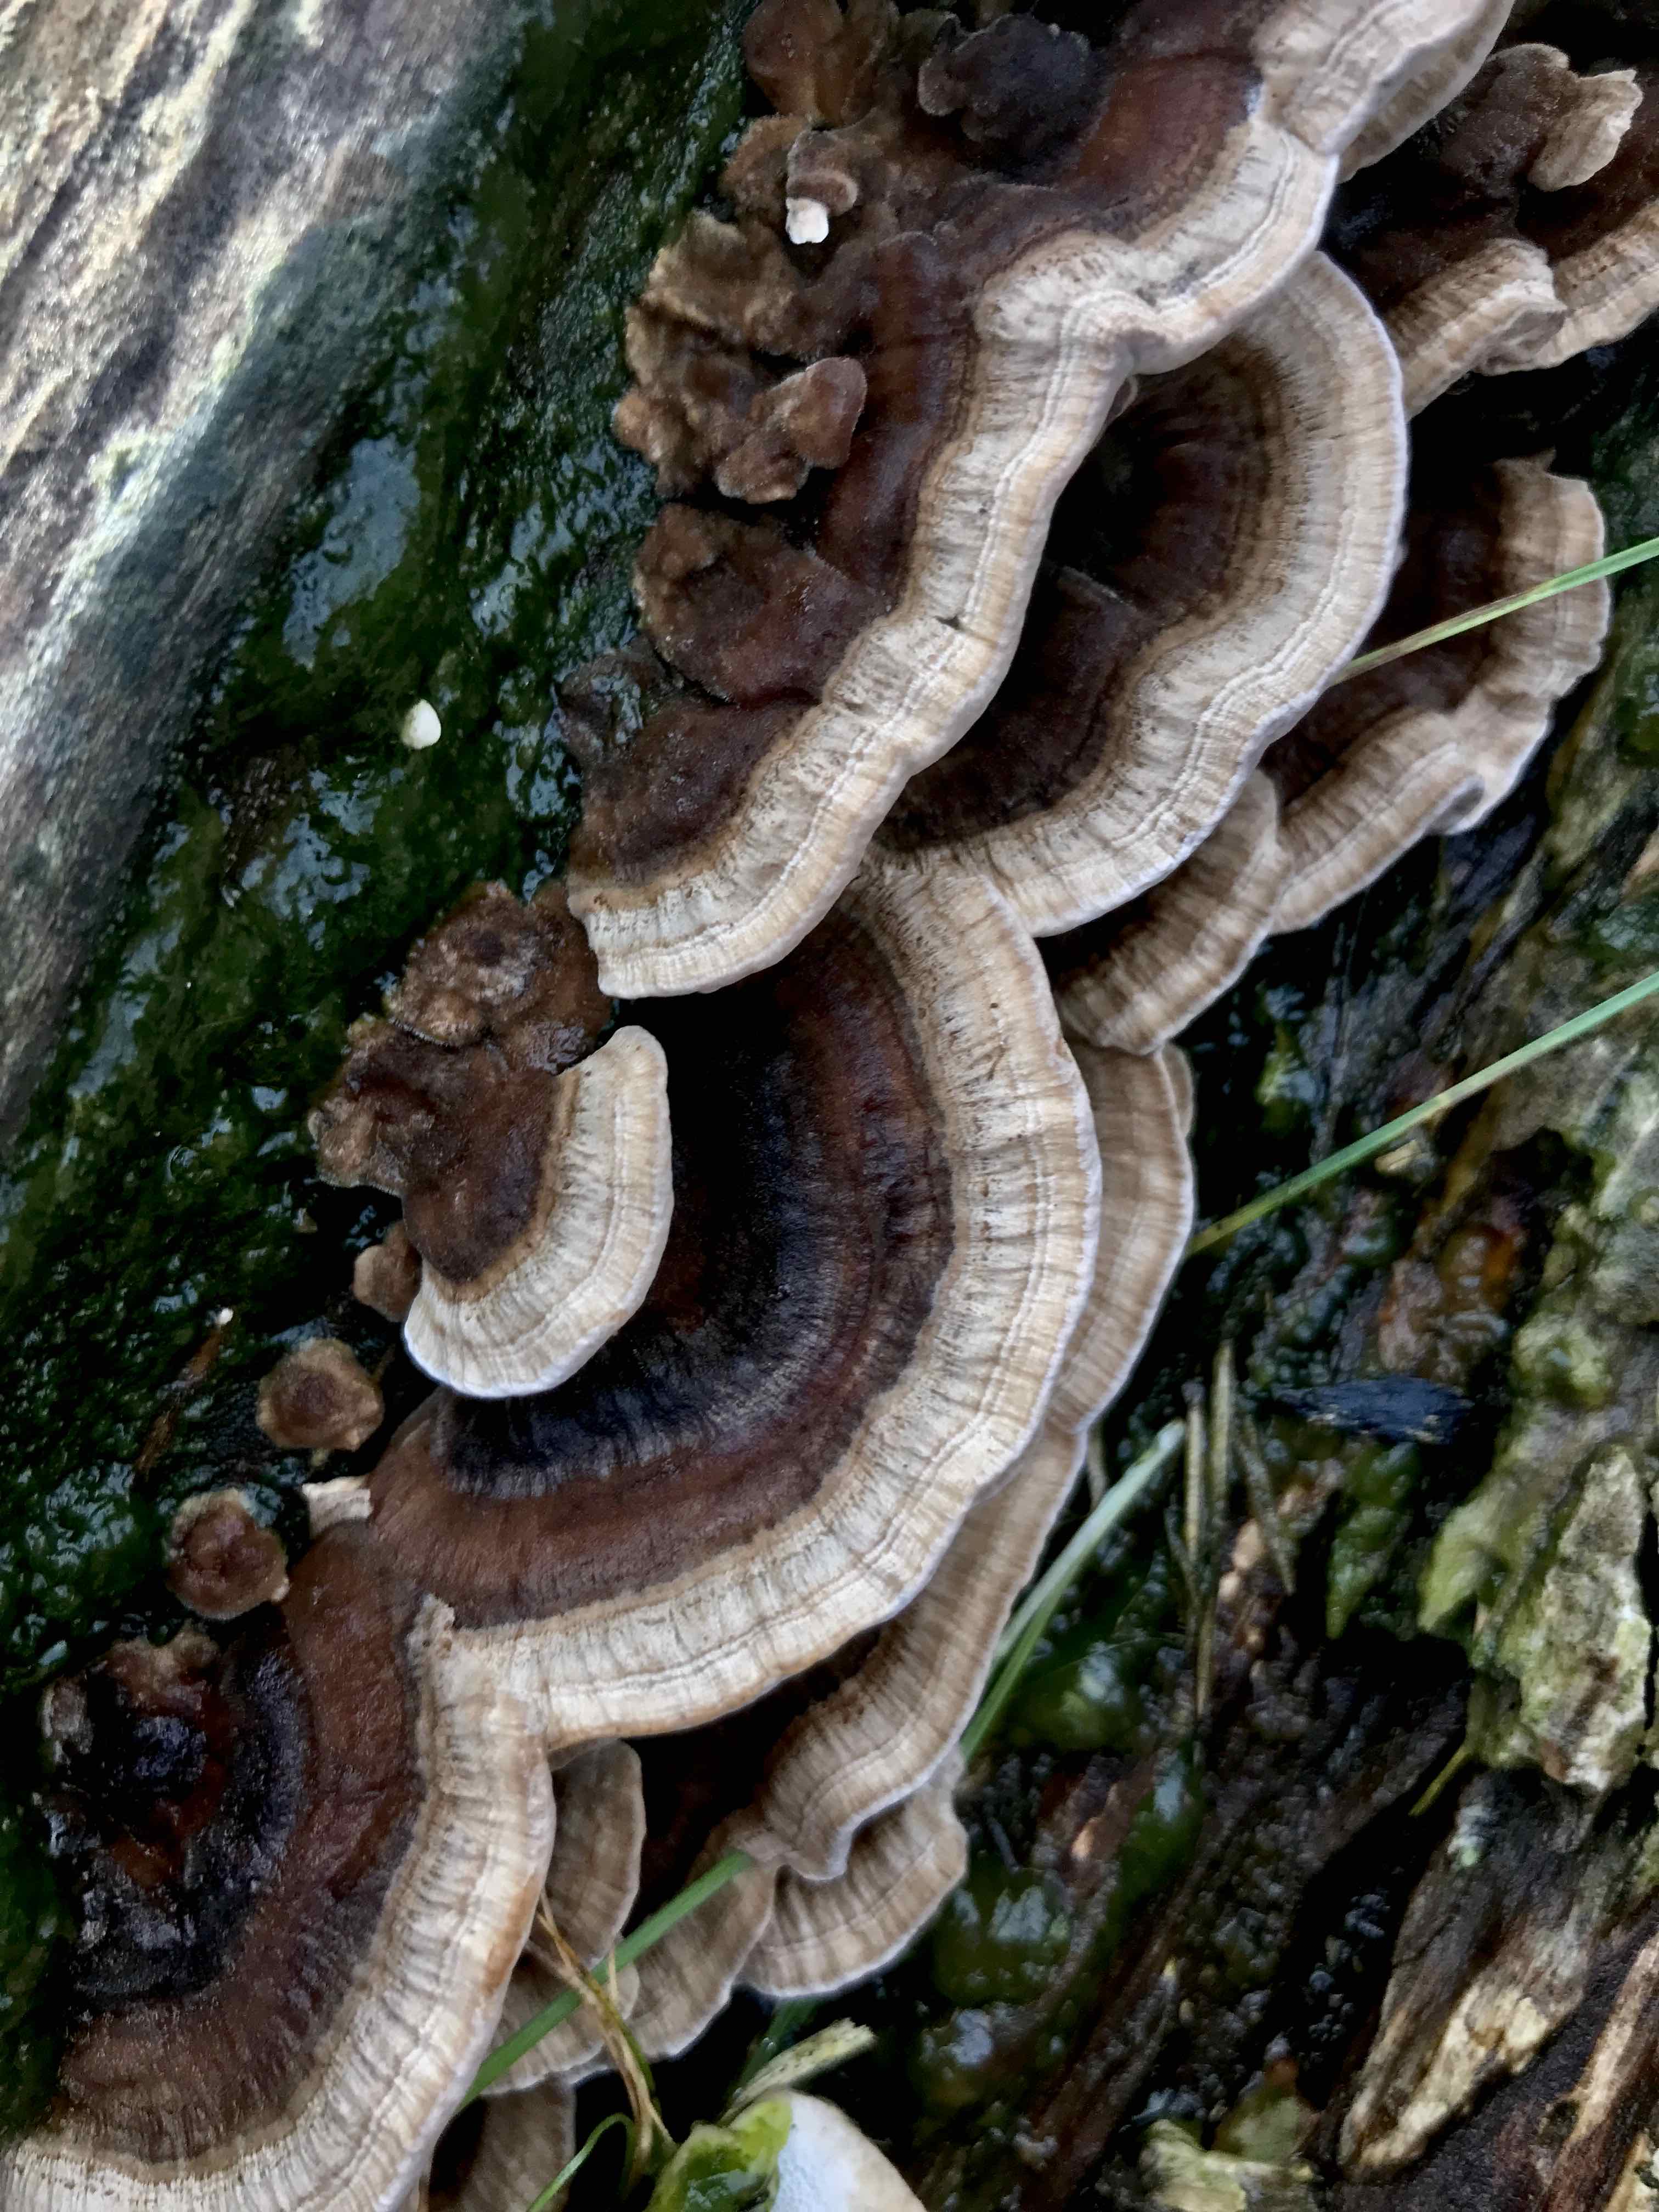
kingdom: Fungi
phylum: Basidiomycota
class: Agaricomycetes
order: Polyporales
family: Polyporaceae
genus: Trametes
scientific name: Trametes versicolor
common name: broget læderporesvamp
